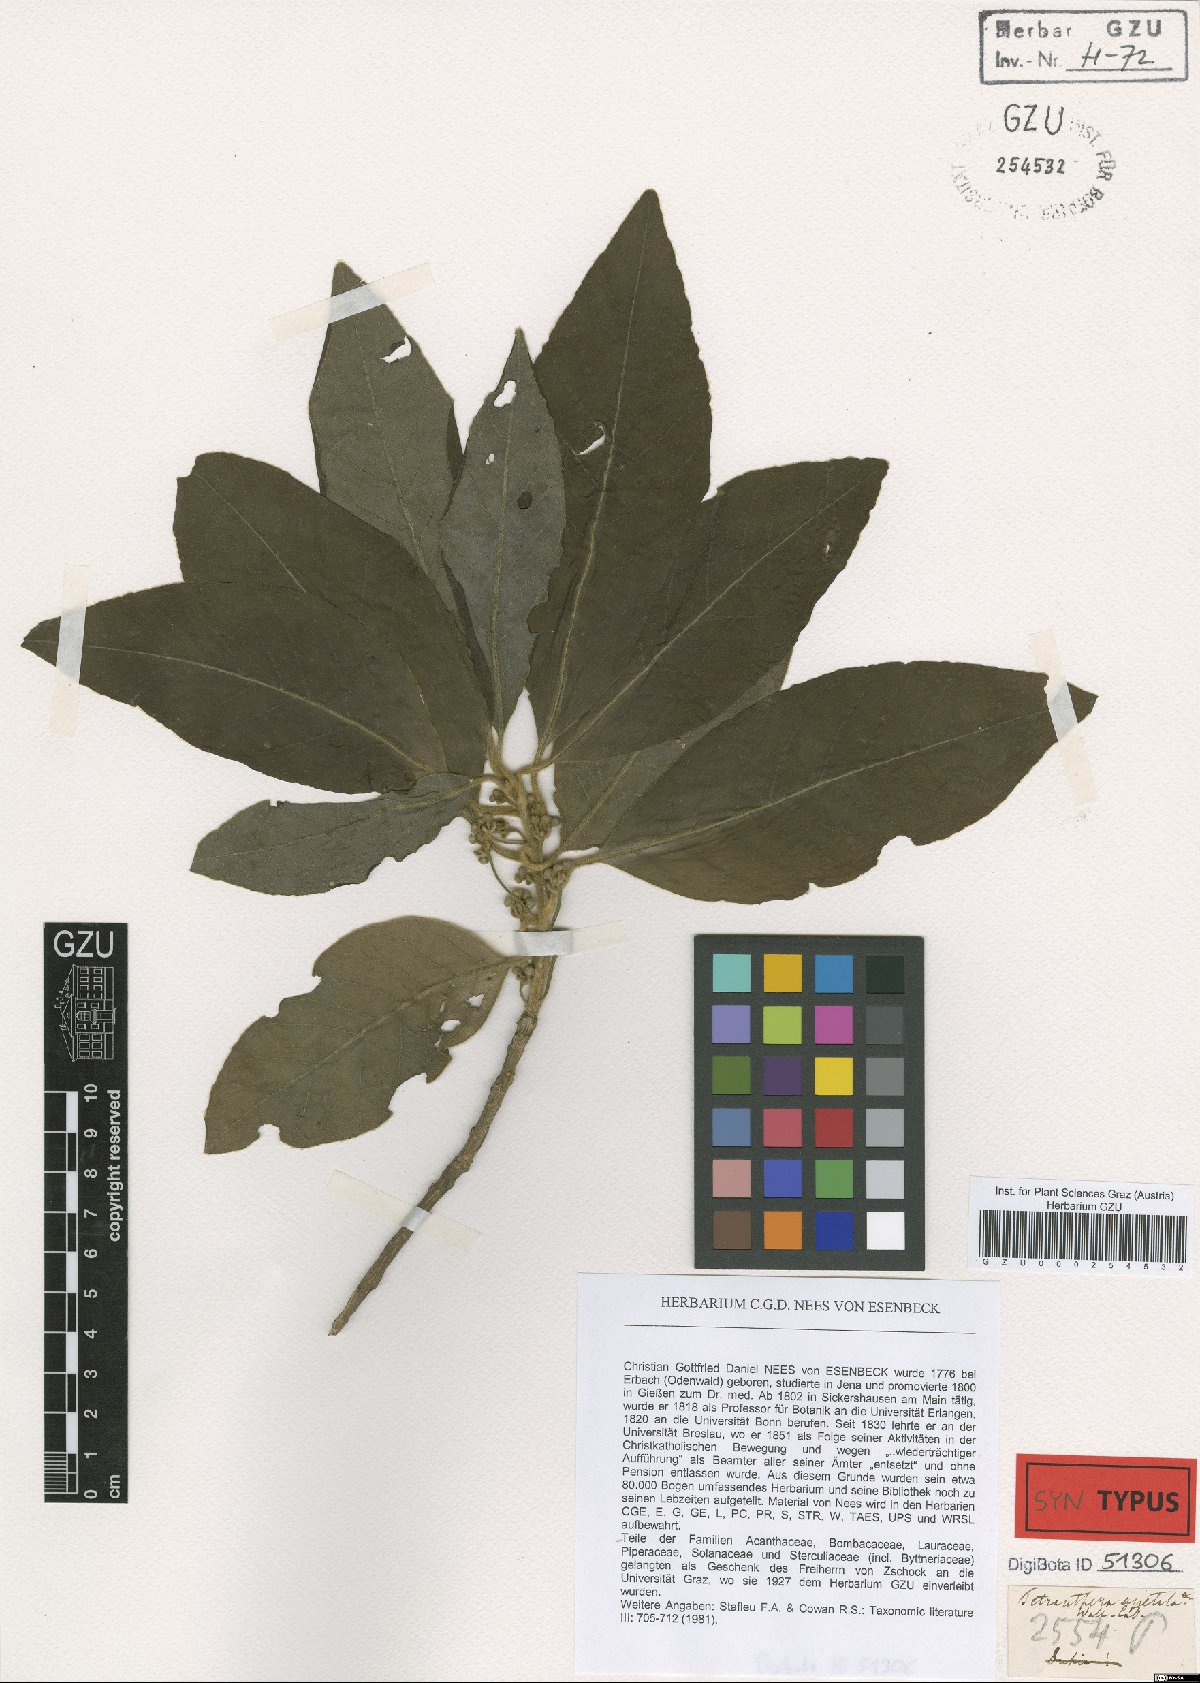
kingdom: Plantae
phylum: Tracheophyta
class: Magnoliopsida
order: Laurales
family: Lauraceae
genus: Litsea
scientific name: Litsea glutinosa
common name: Indian-laurel
